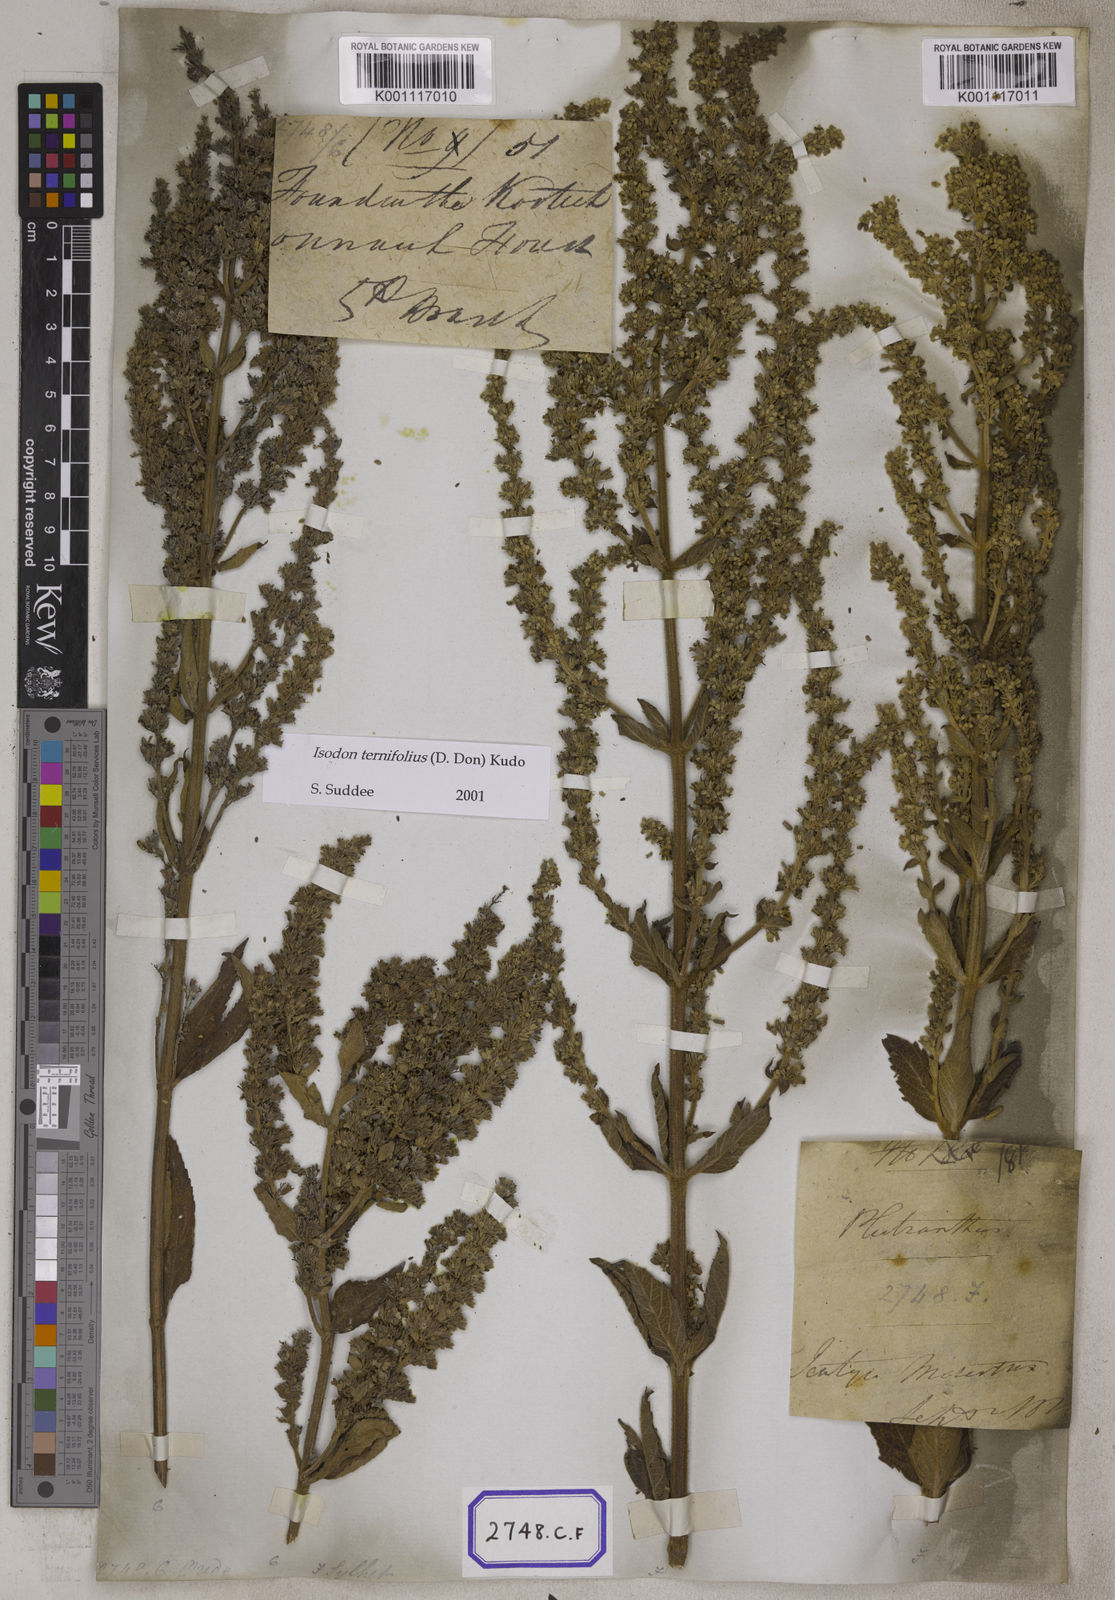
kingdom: Plantae
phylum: Tracheophyta
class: Magnoliopsida
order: Lamiales
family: Lamiaceae
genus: Isodon
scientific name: Isodon ternifolius
